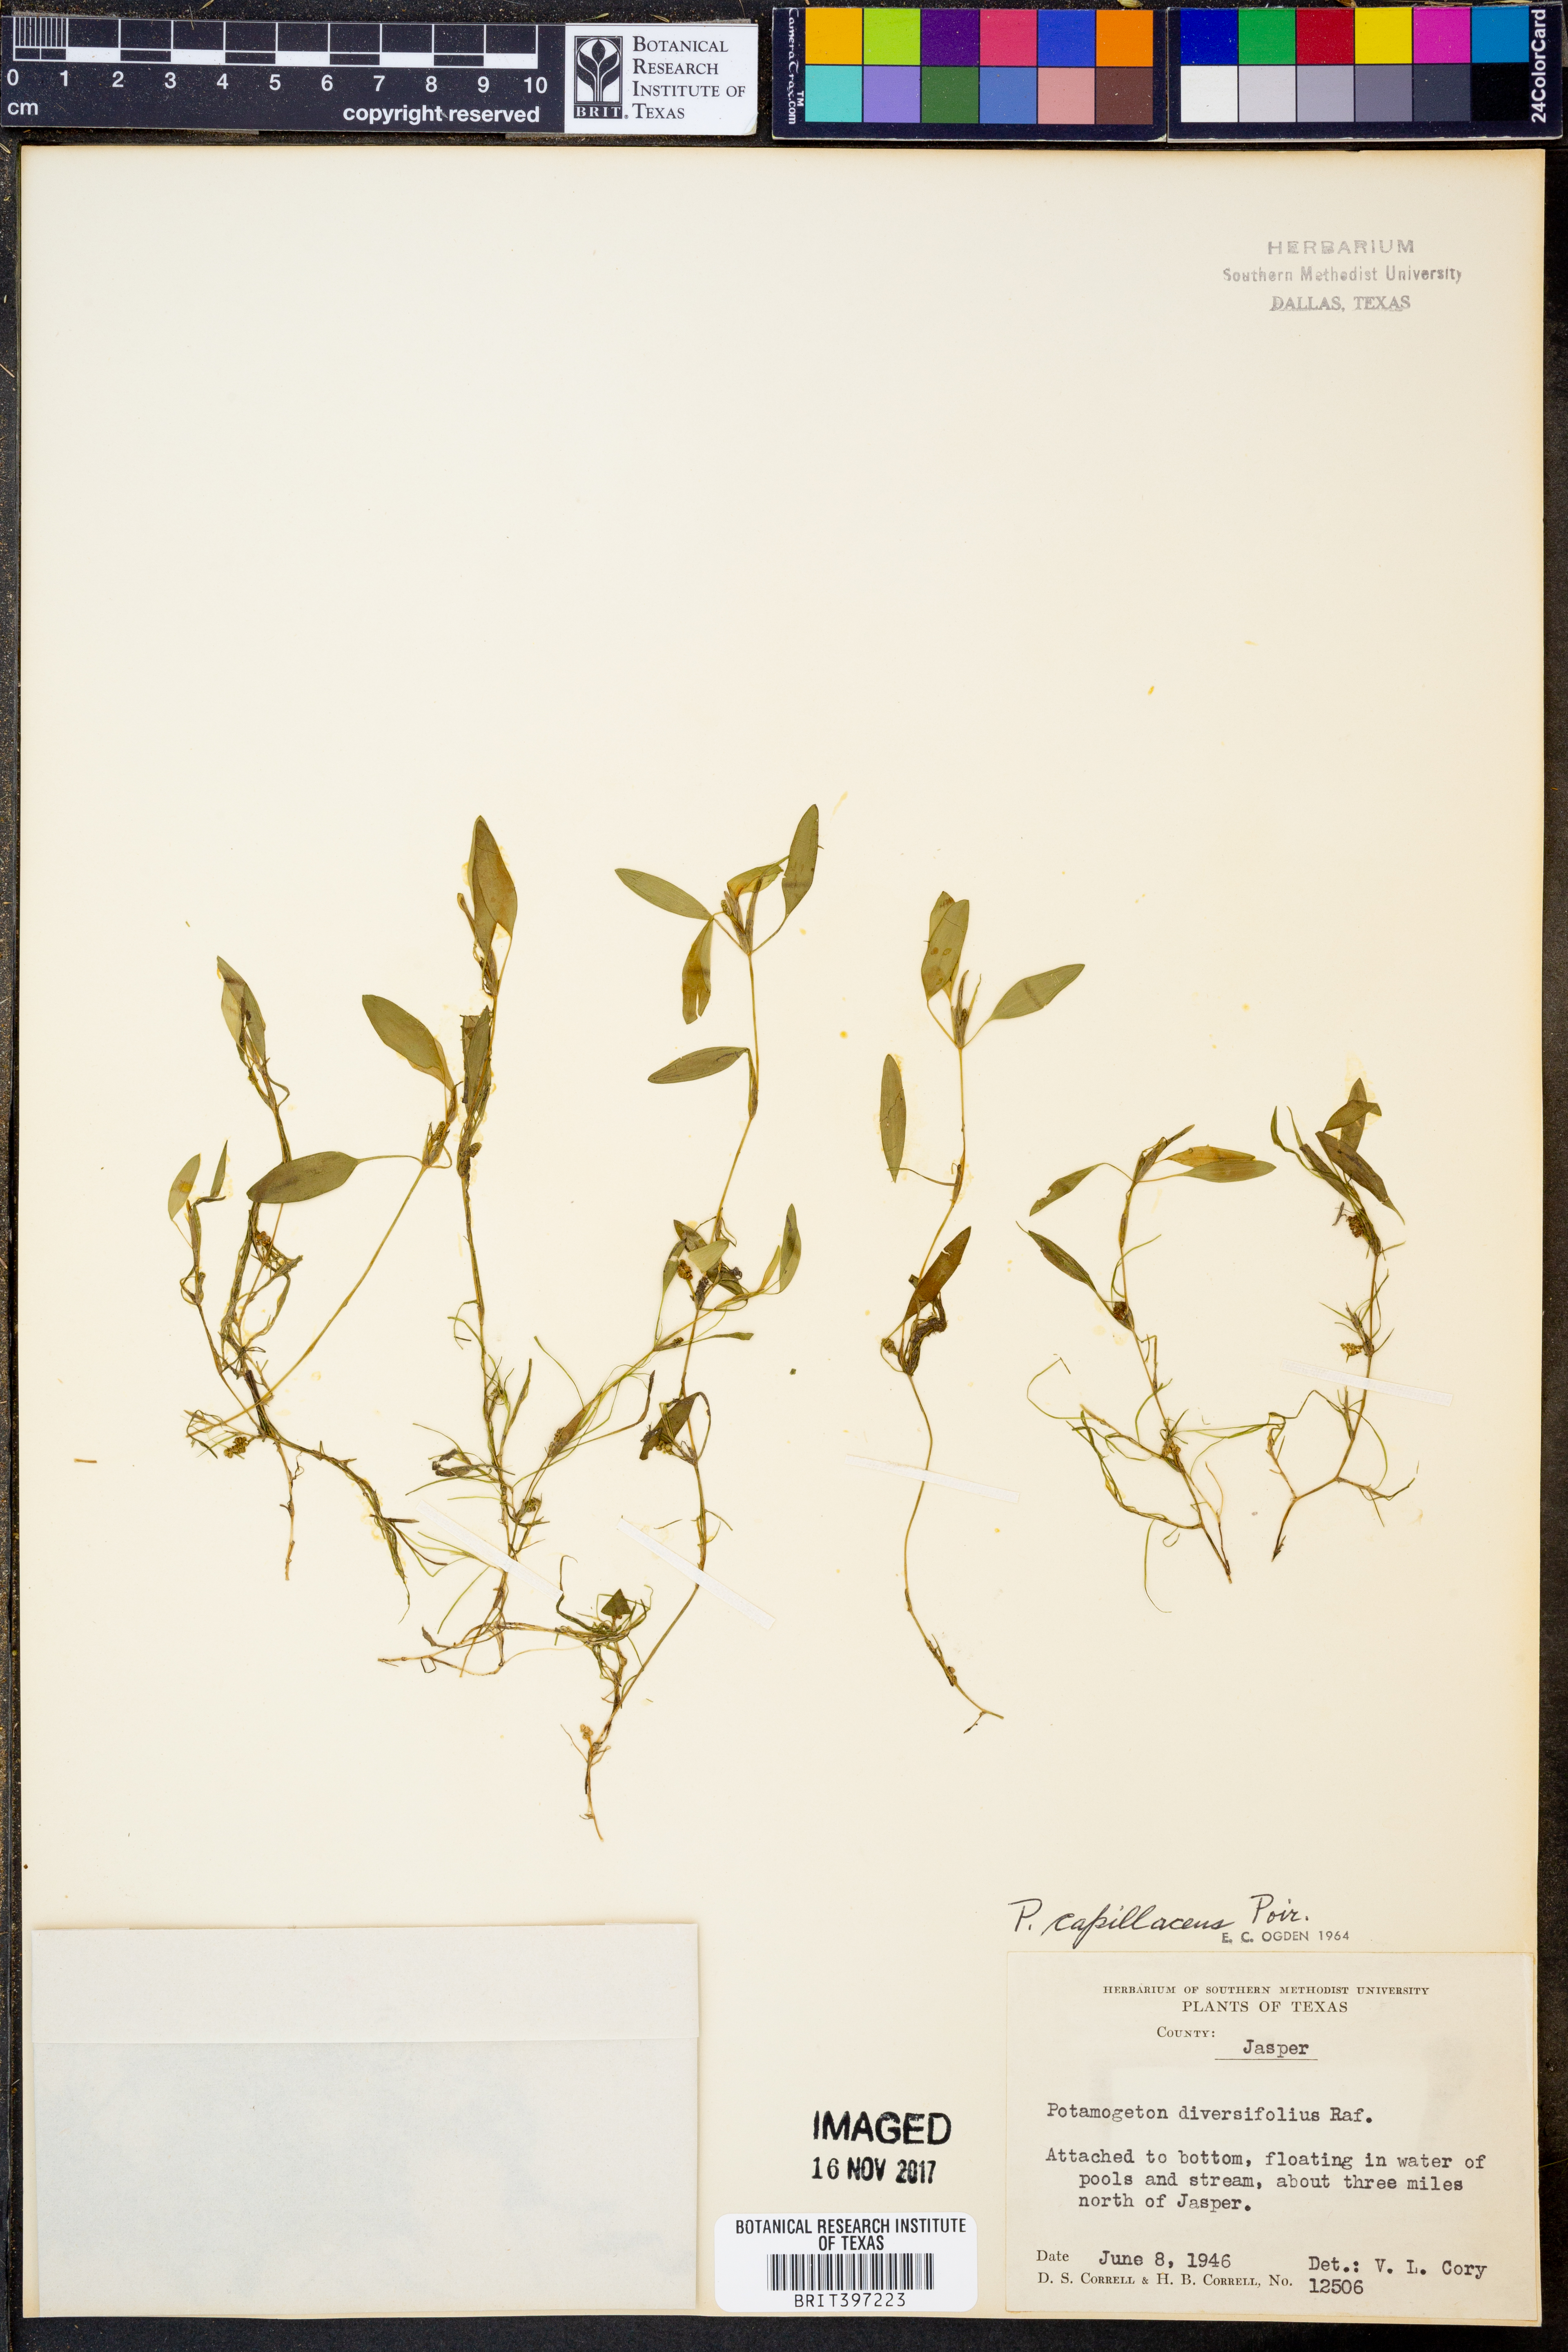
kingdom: Plantae
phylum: Tracheophyta
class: Liliopsida
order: Alismatales
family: Potamogetonaceae
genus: Potamogeton
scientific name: Potamogeton diversifolius
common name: Water-thread pondweed
